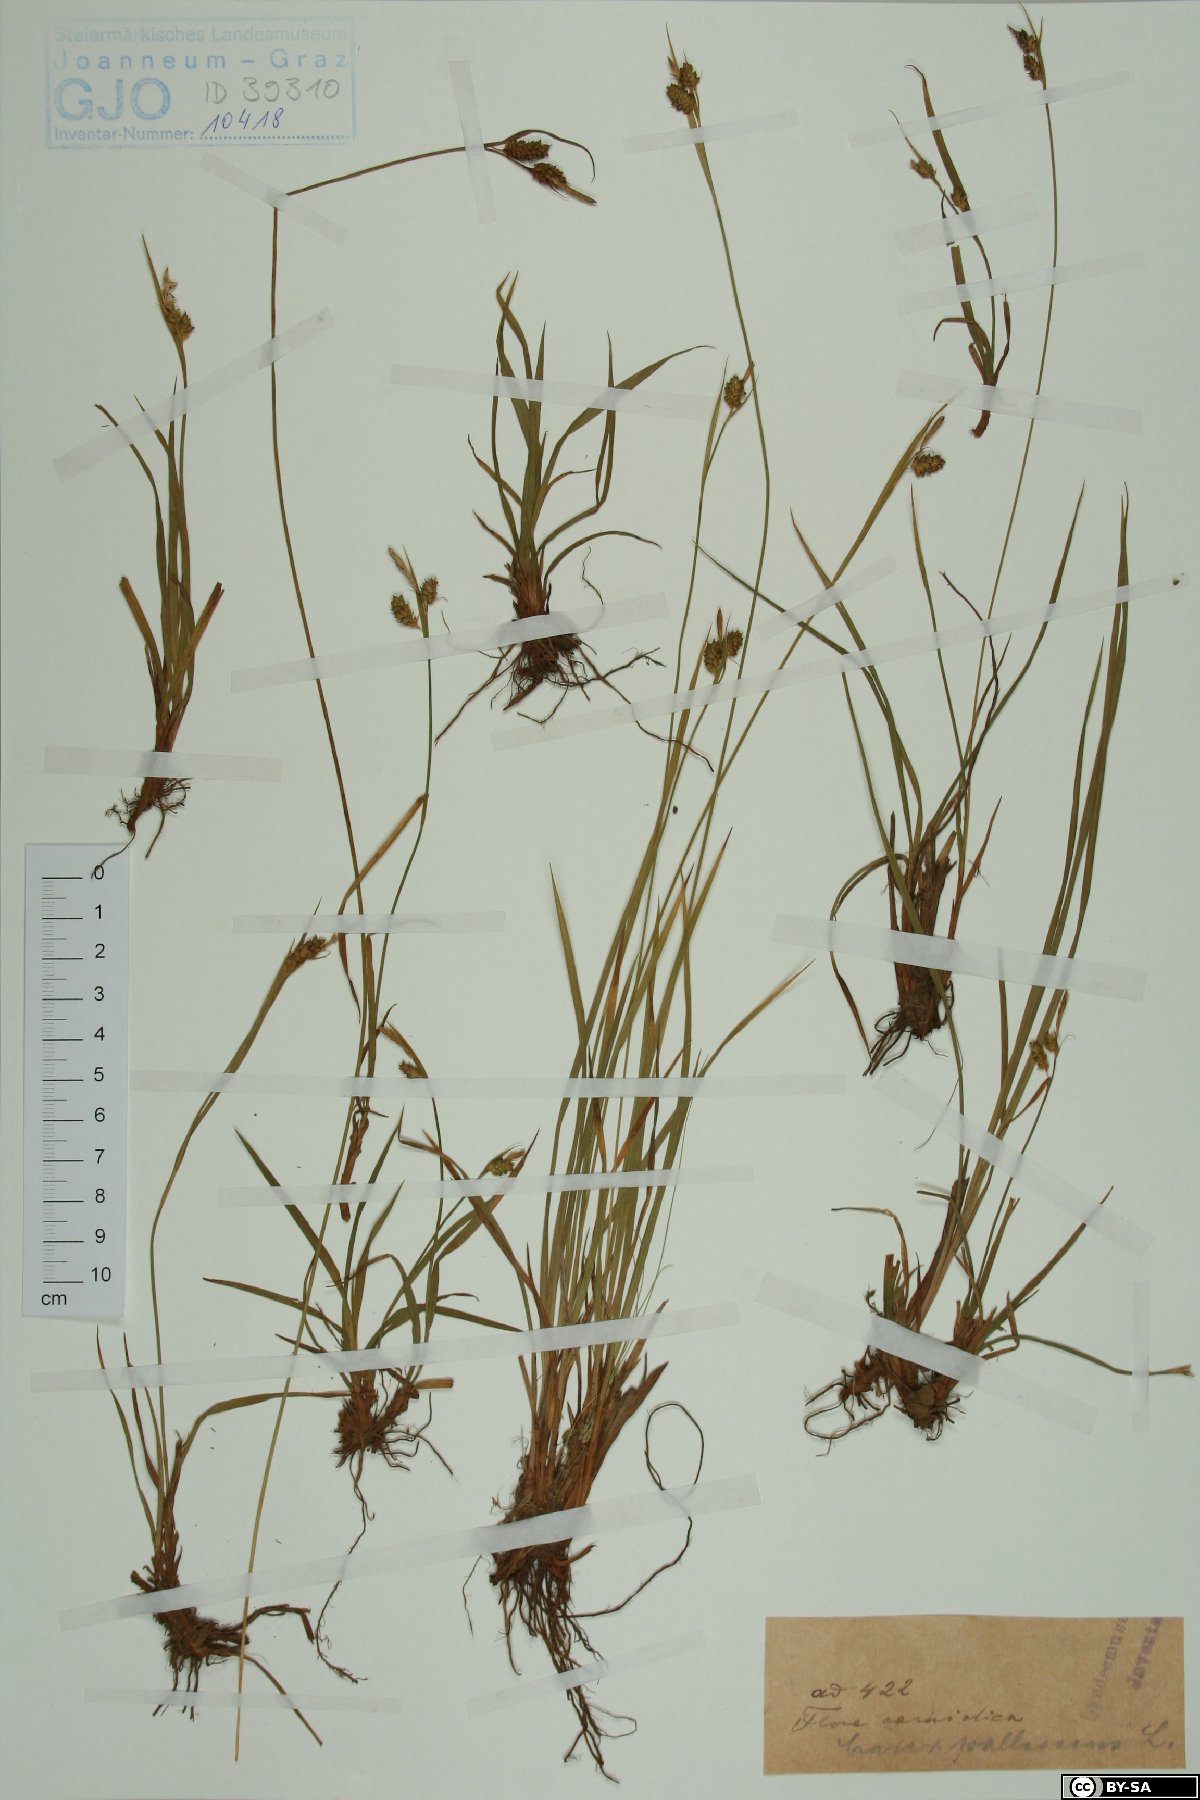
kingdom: Plantae
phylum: Tracheophyta
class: Liliopsida
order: Poales
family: Cyperaceae
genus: Carex
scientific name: Carex pallescens
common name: Pale sedge
